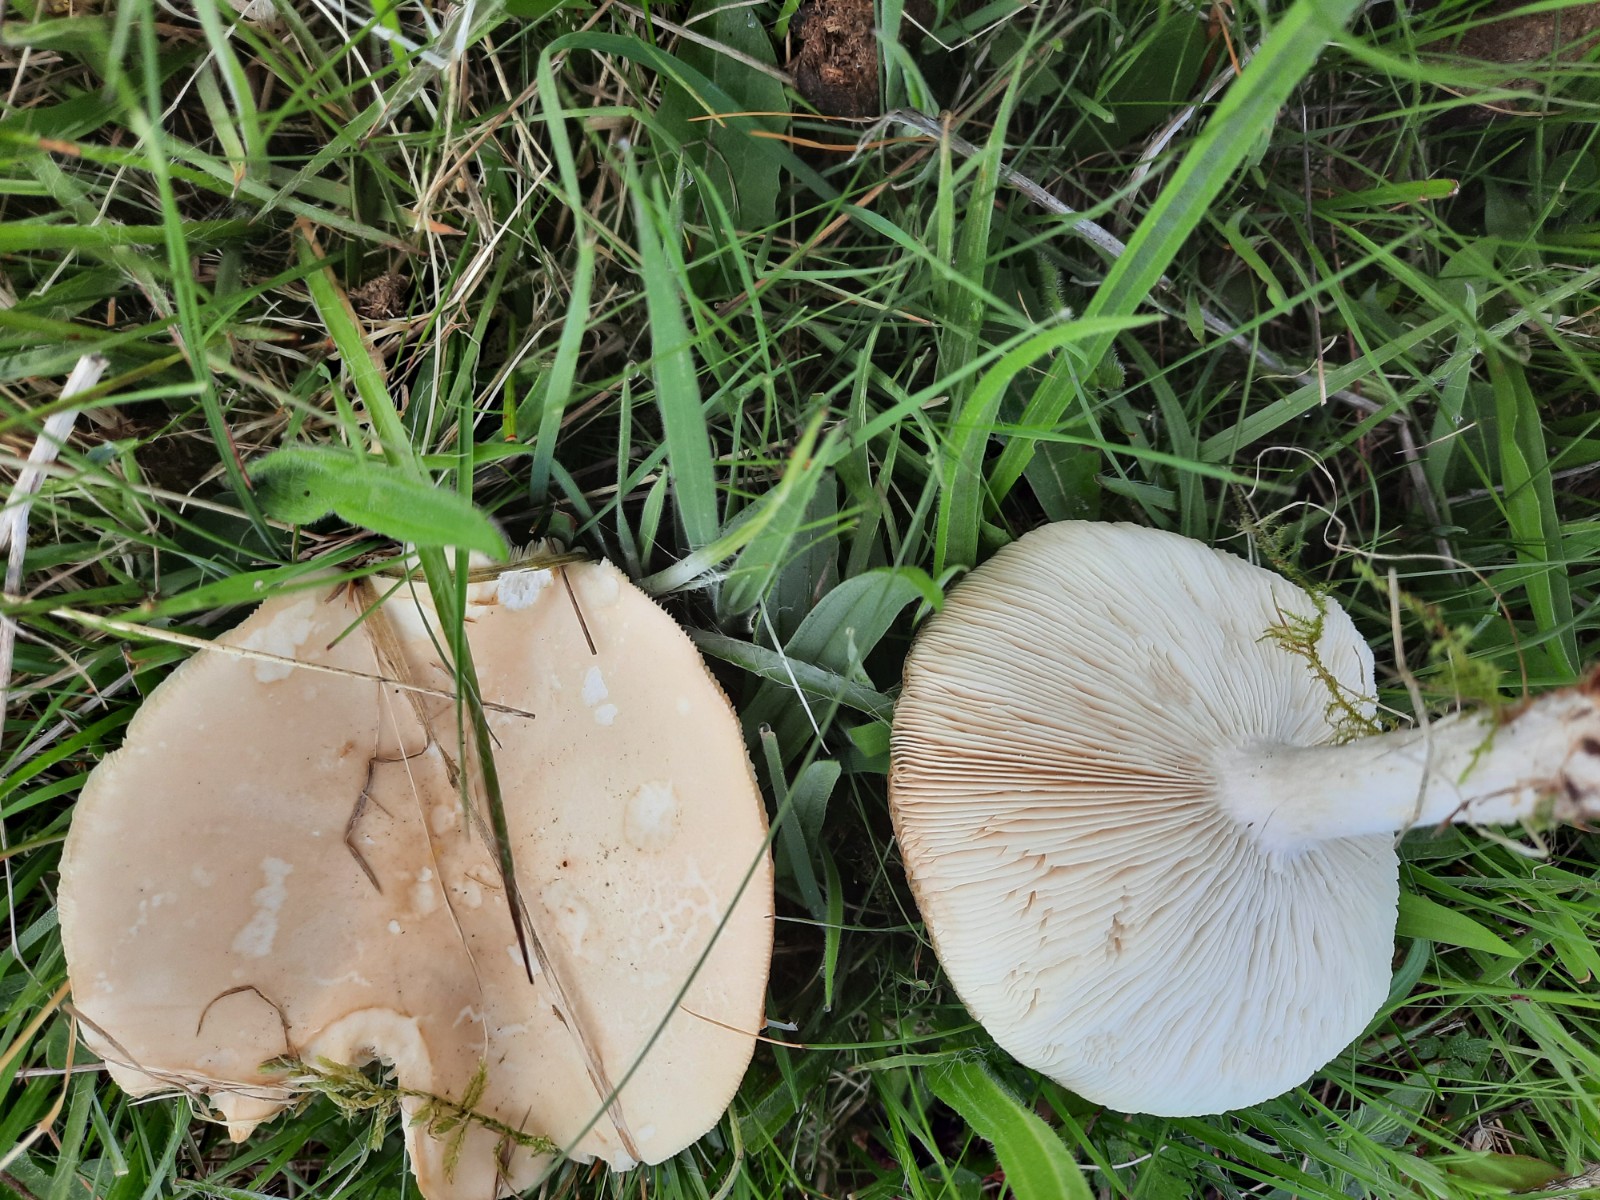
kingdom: Fungi
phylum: Basidiomycota
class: Agaricomycetes
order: Agaricales
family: Tricholomataceae
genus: Melanoleuca
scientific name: Melanoleuca strictipes
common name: sommer-munkehat
